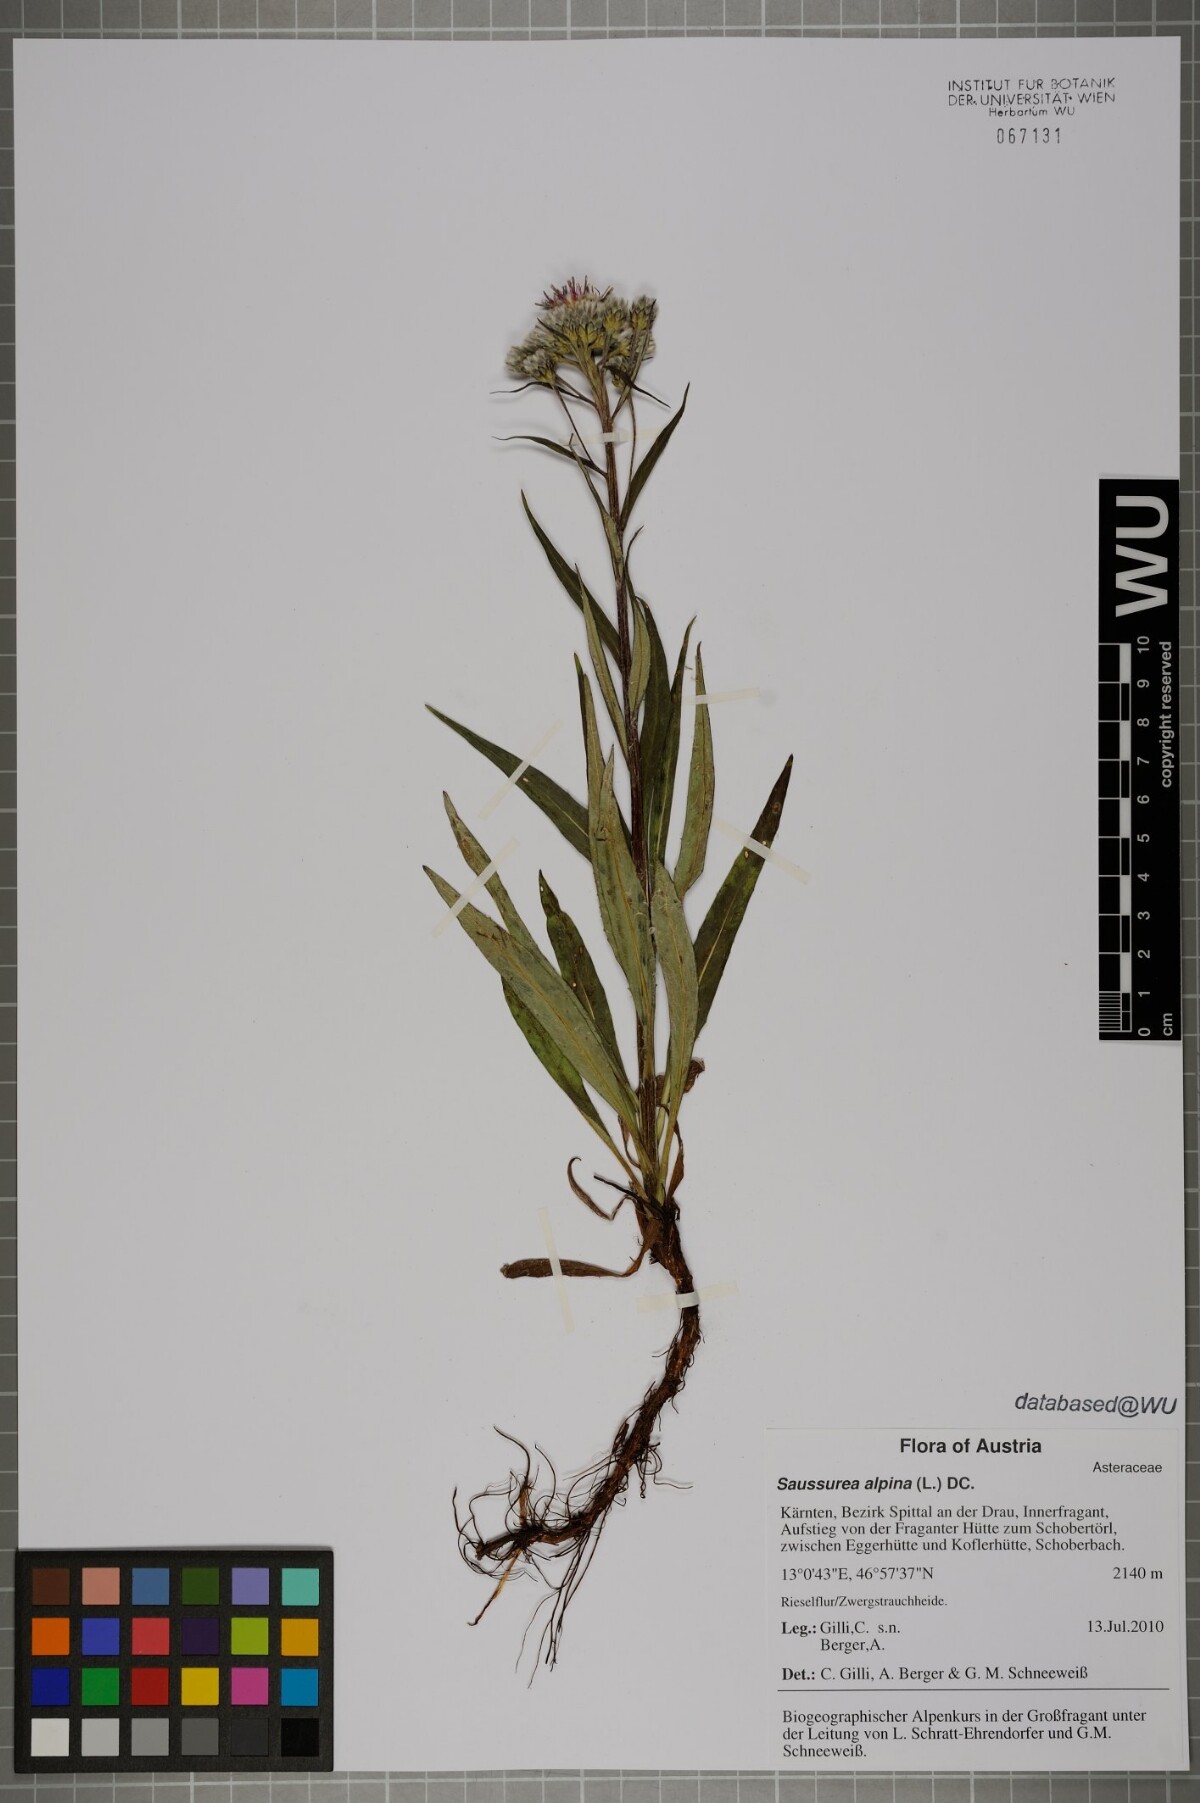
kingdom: Plantae
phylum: Tracheophyta
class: Magnoliopsida
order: Asterales
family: Asteraceae
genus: Saussurea
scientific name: Saussurea alpina
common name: Alpine saw-wort
